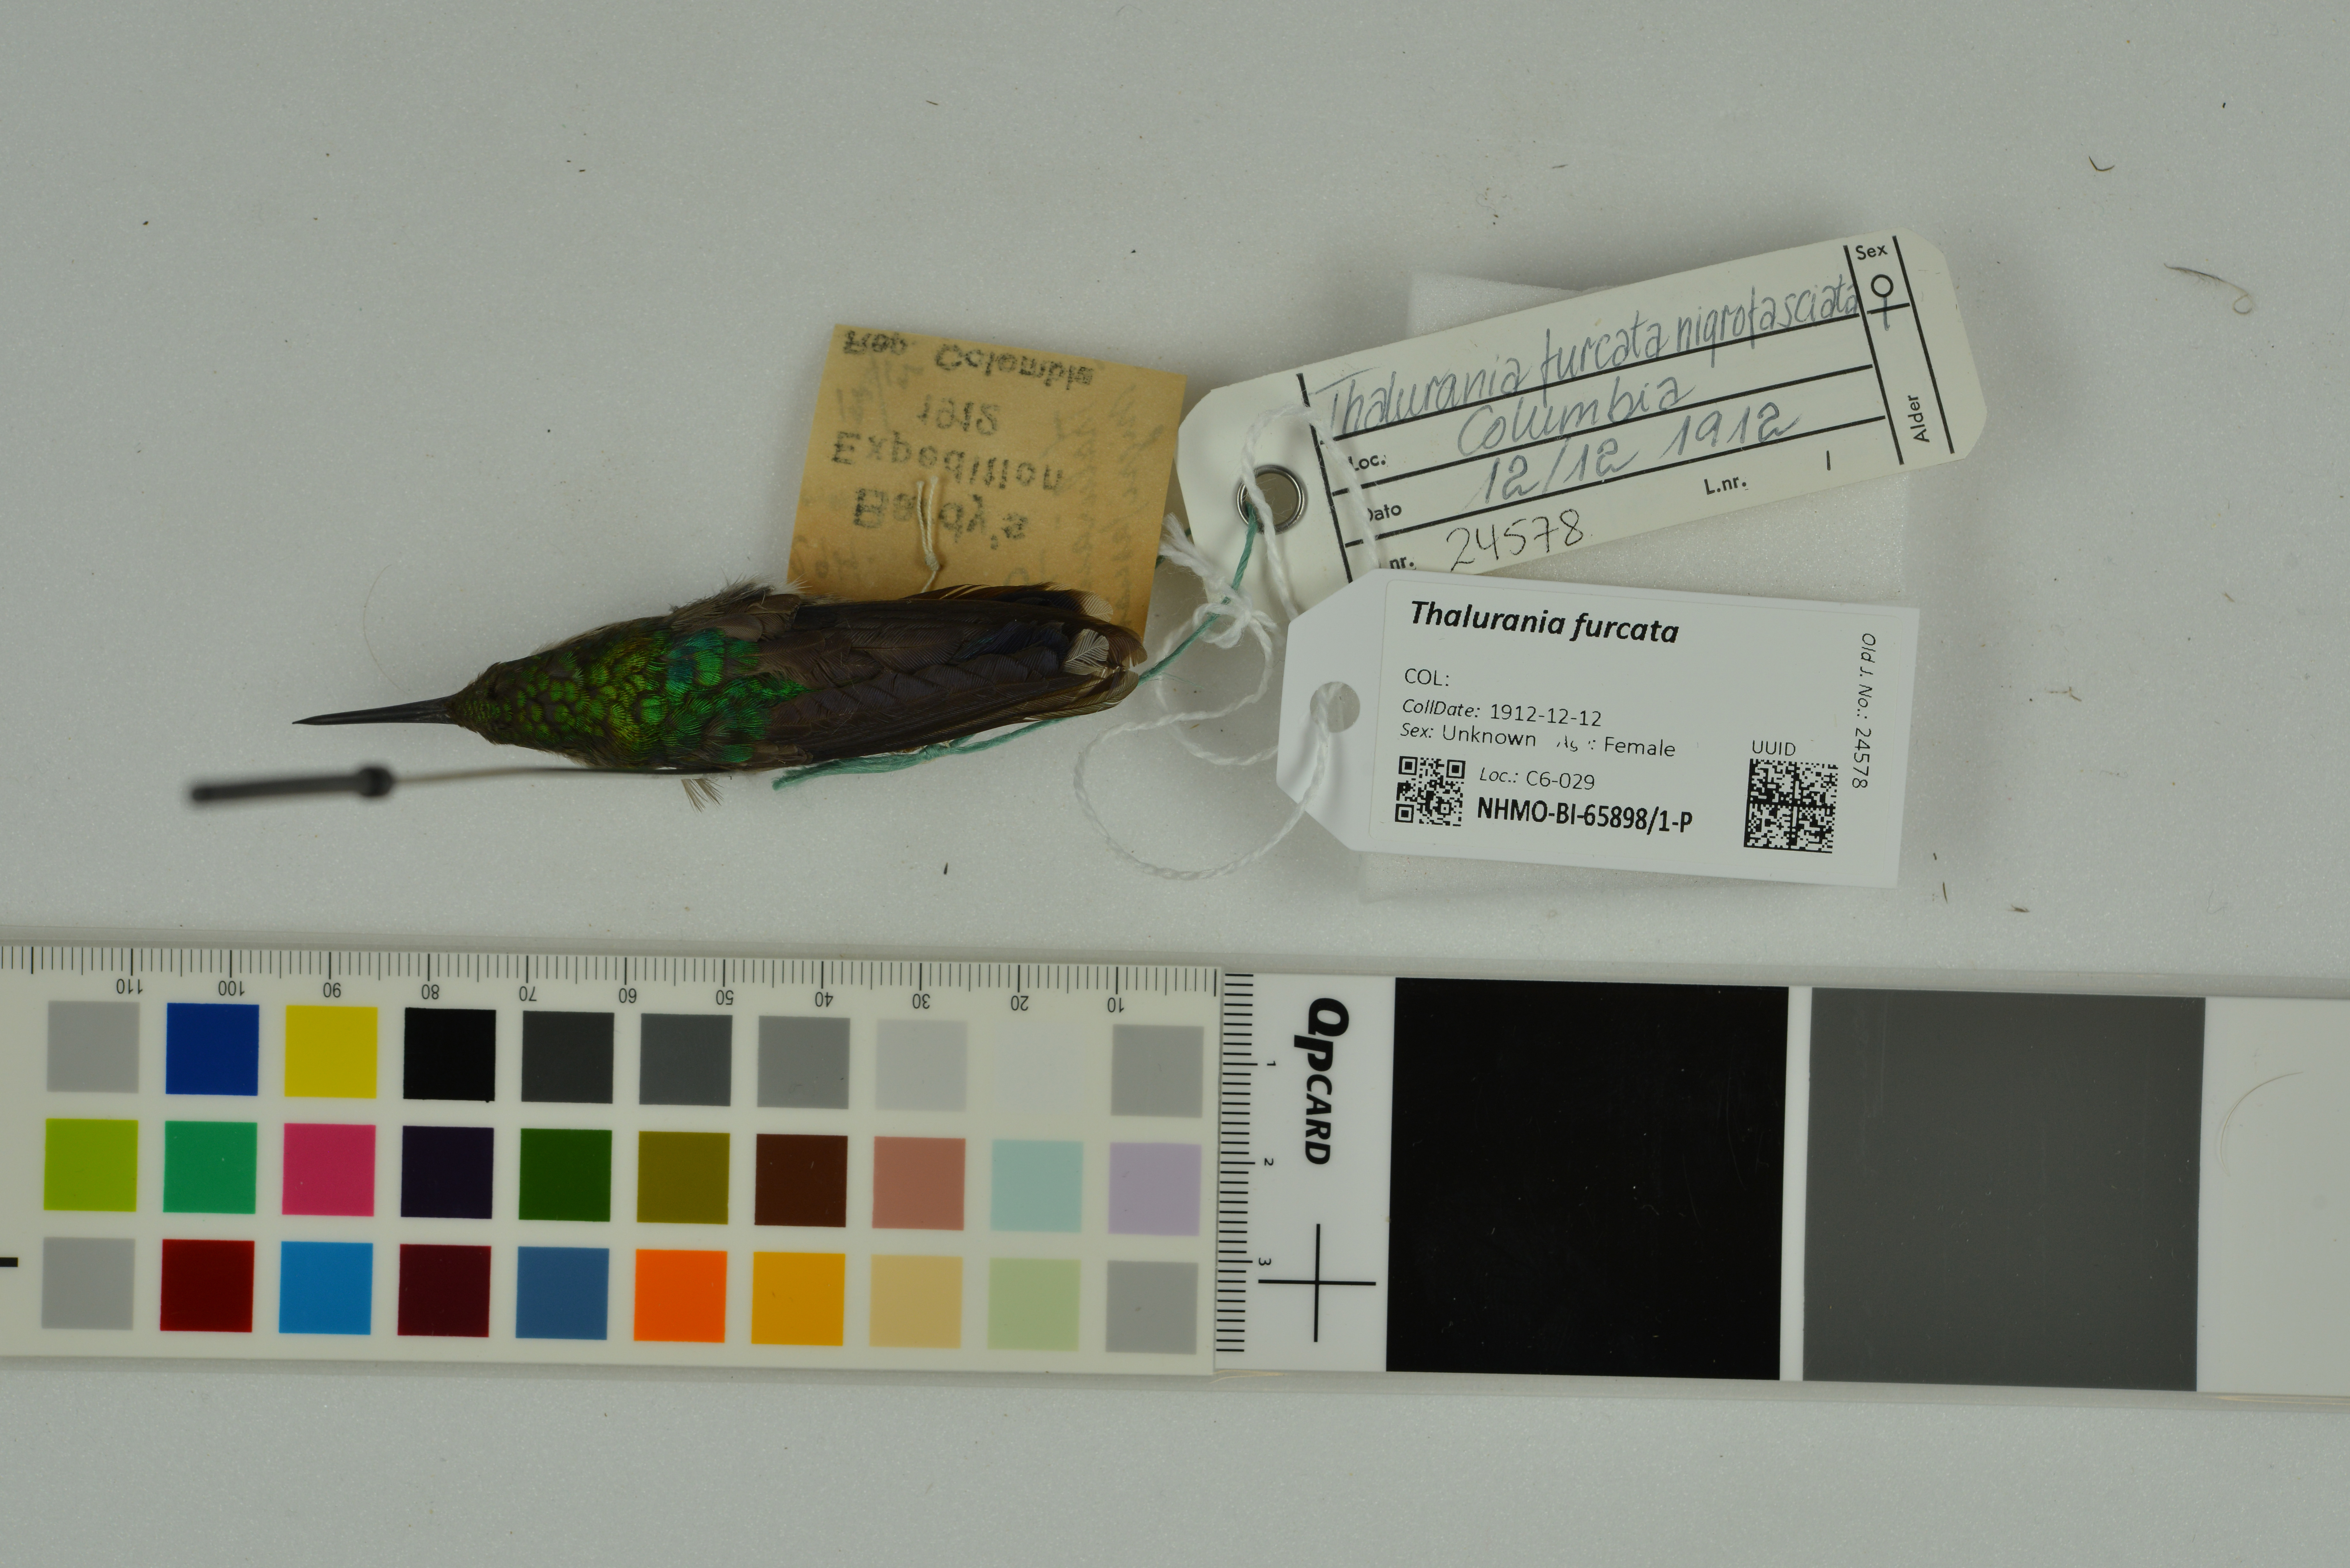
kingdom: Animalia
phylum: Chordata
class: Aves
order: Apodiformes
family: Trochilidae
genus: Thalurania
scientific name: Thalurania furcata
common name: Fork-tailed woodnymph
